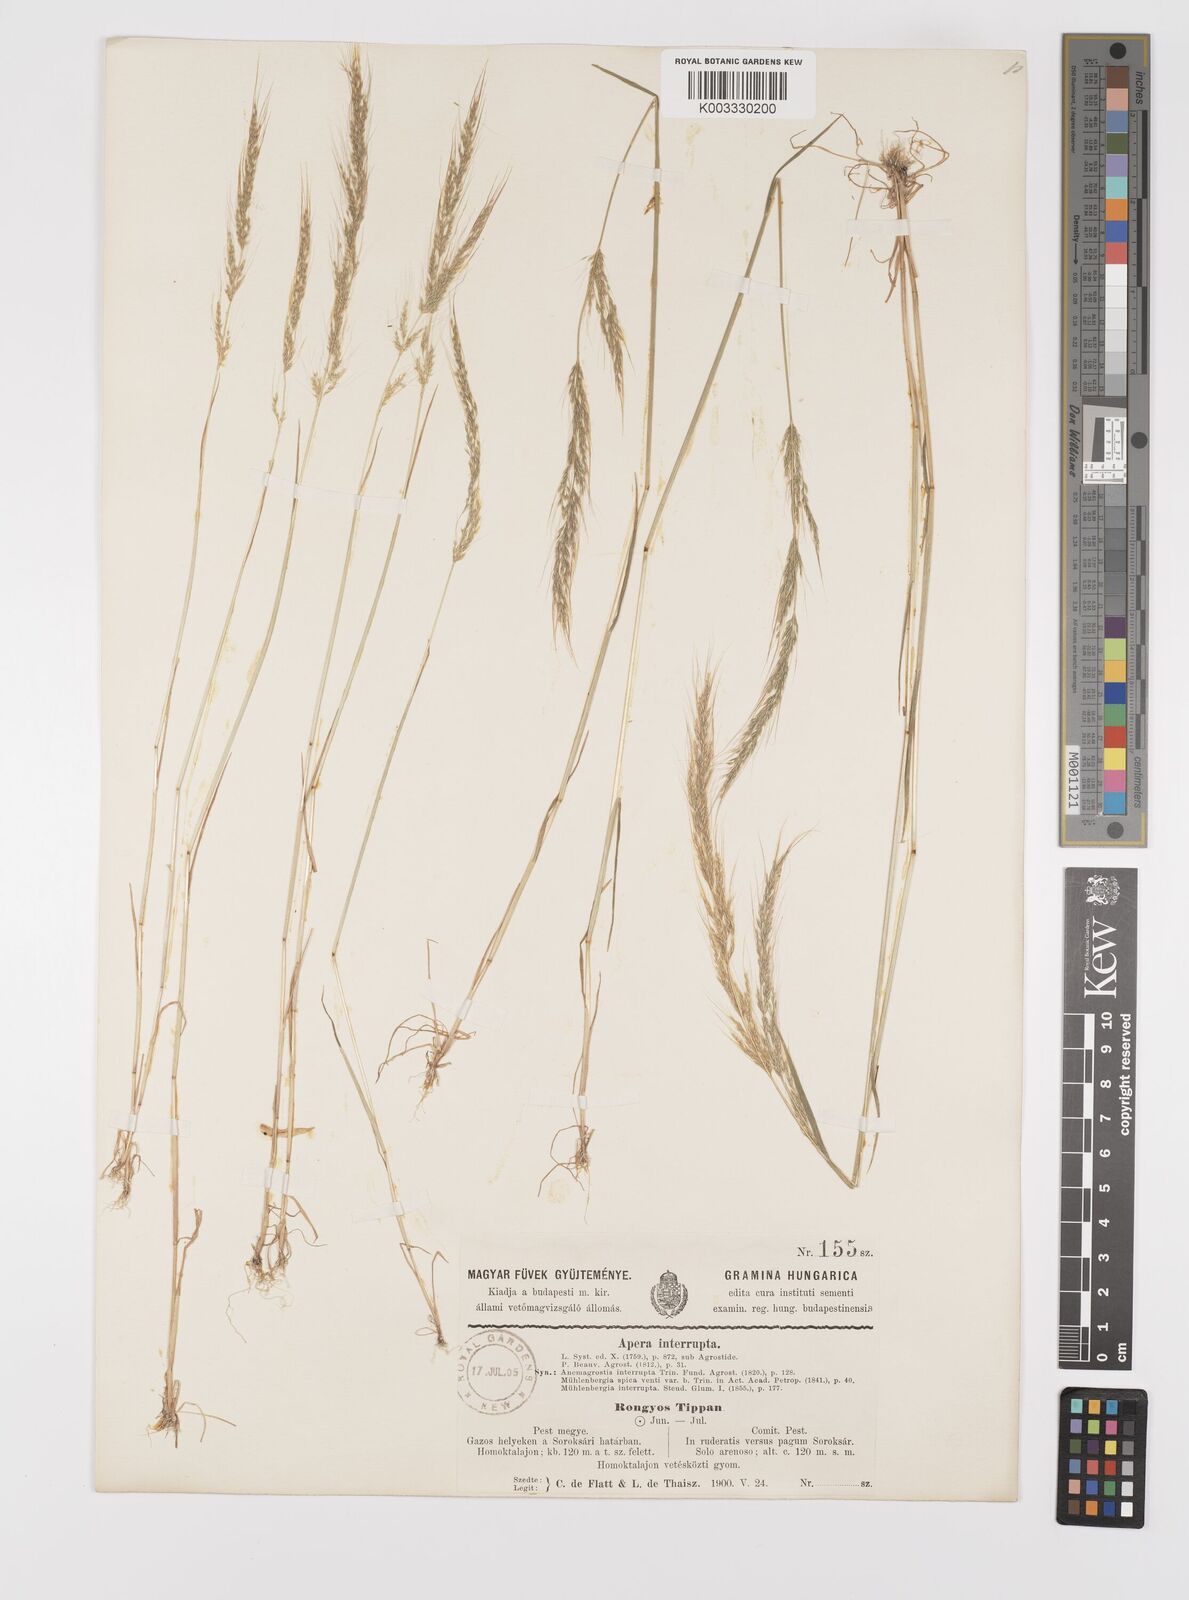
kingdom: Plantae
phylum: Tracheophyta
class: Liliopsida
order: Poales
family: Poaceae
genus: Apera
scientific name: Apera interrupta
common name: Dense silky-bent
